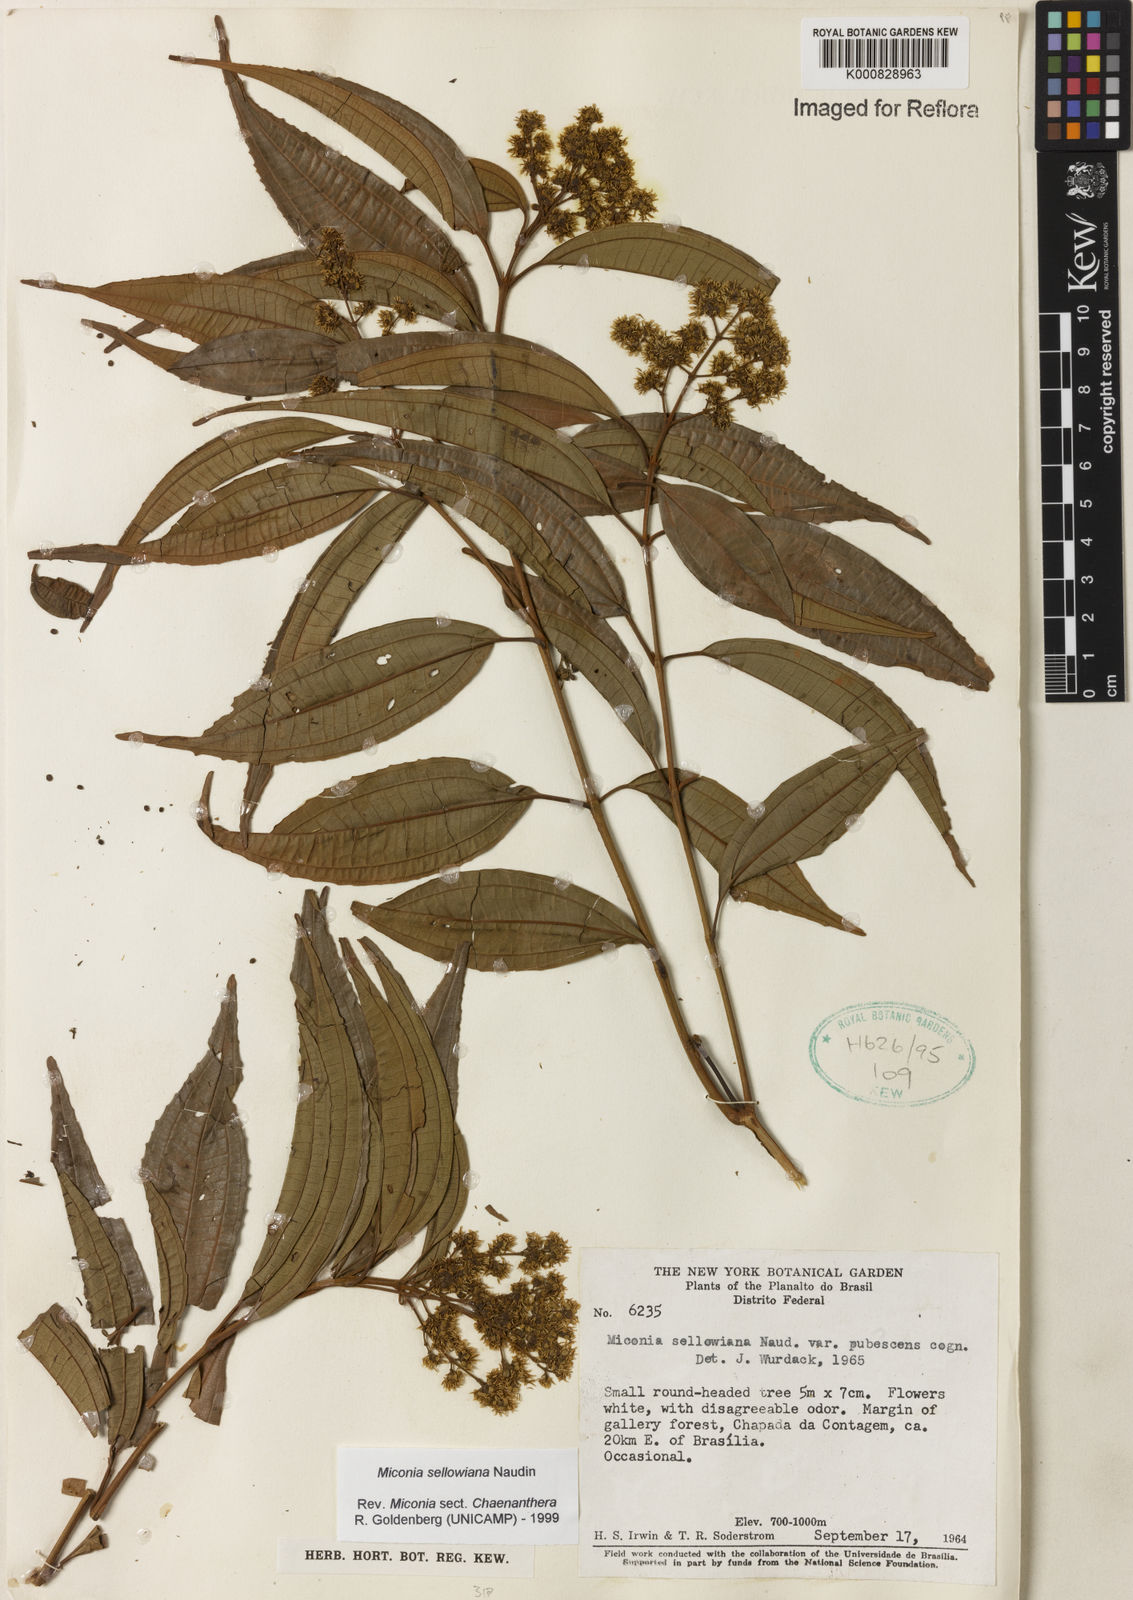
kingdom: Plantae
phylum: Tracheophyta
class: Magnoliopsida
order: Myrtales
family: Melastomataceae
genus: Miconia
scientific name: Miconia sellowiana
